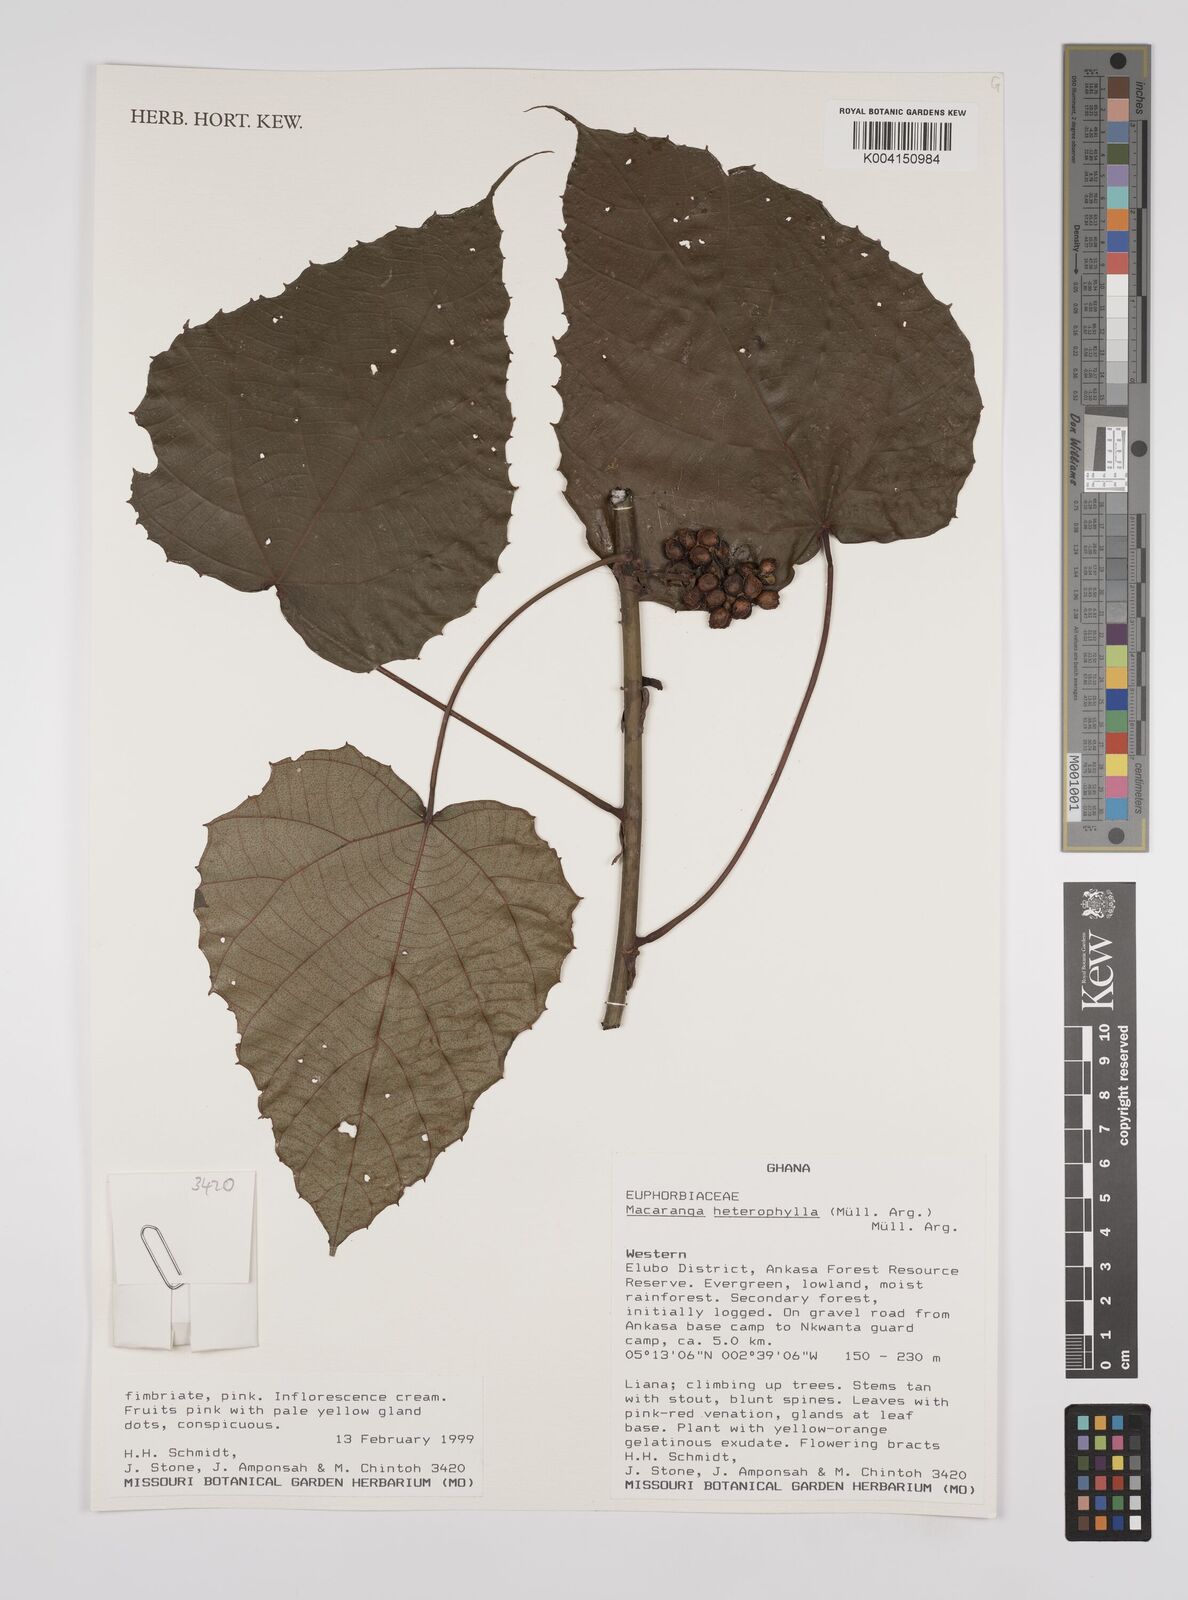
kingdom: Plantae
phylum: Tracheophyta
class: Magnoliopsida
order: Malpighiales
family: Euphorbiaceae
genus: Macaranga
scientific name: Macaranga heterophylla
